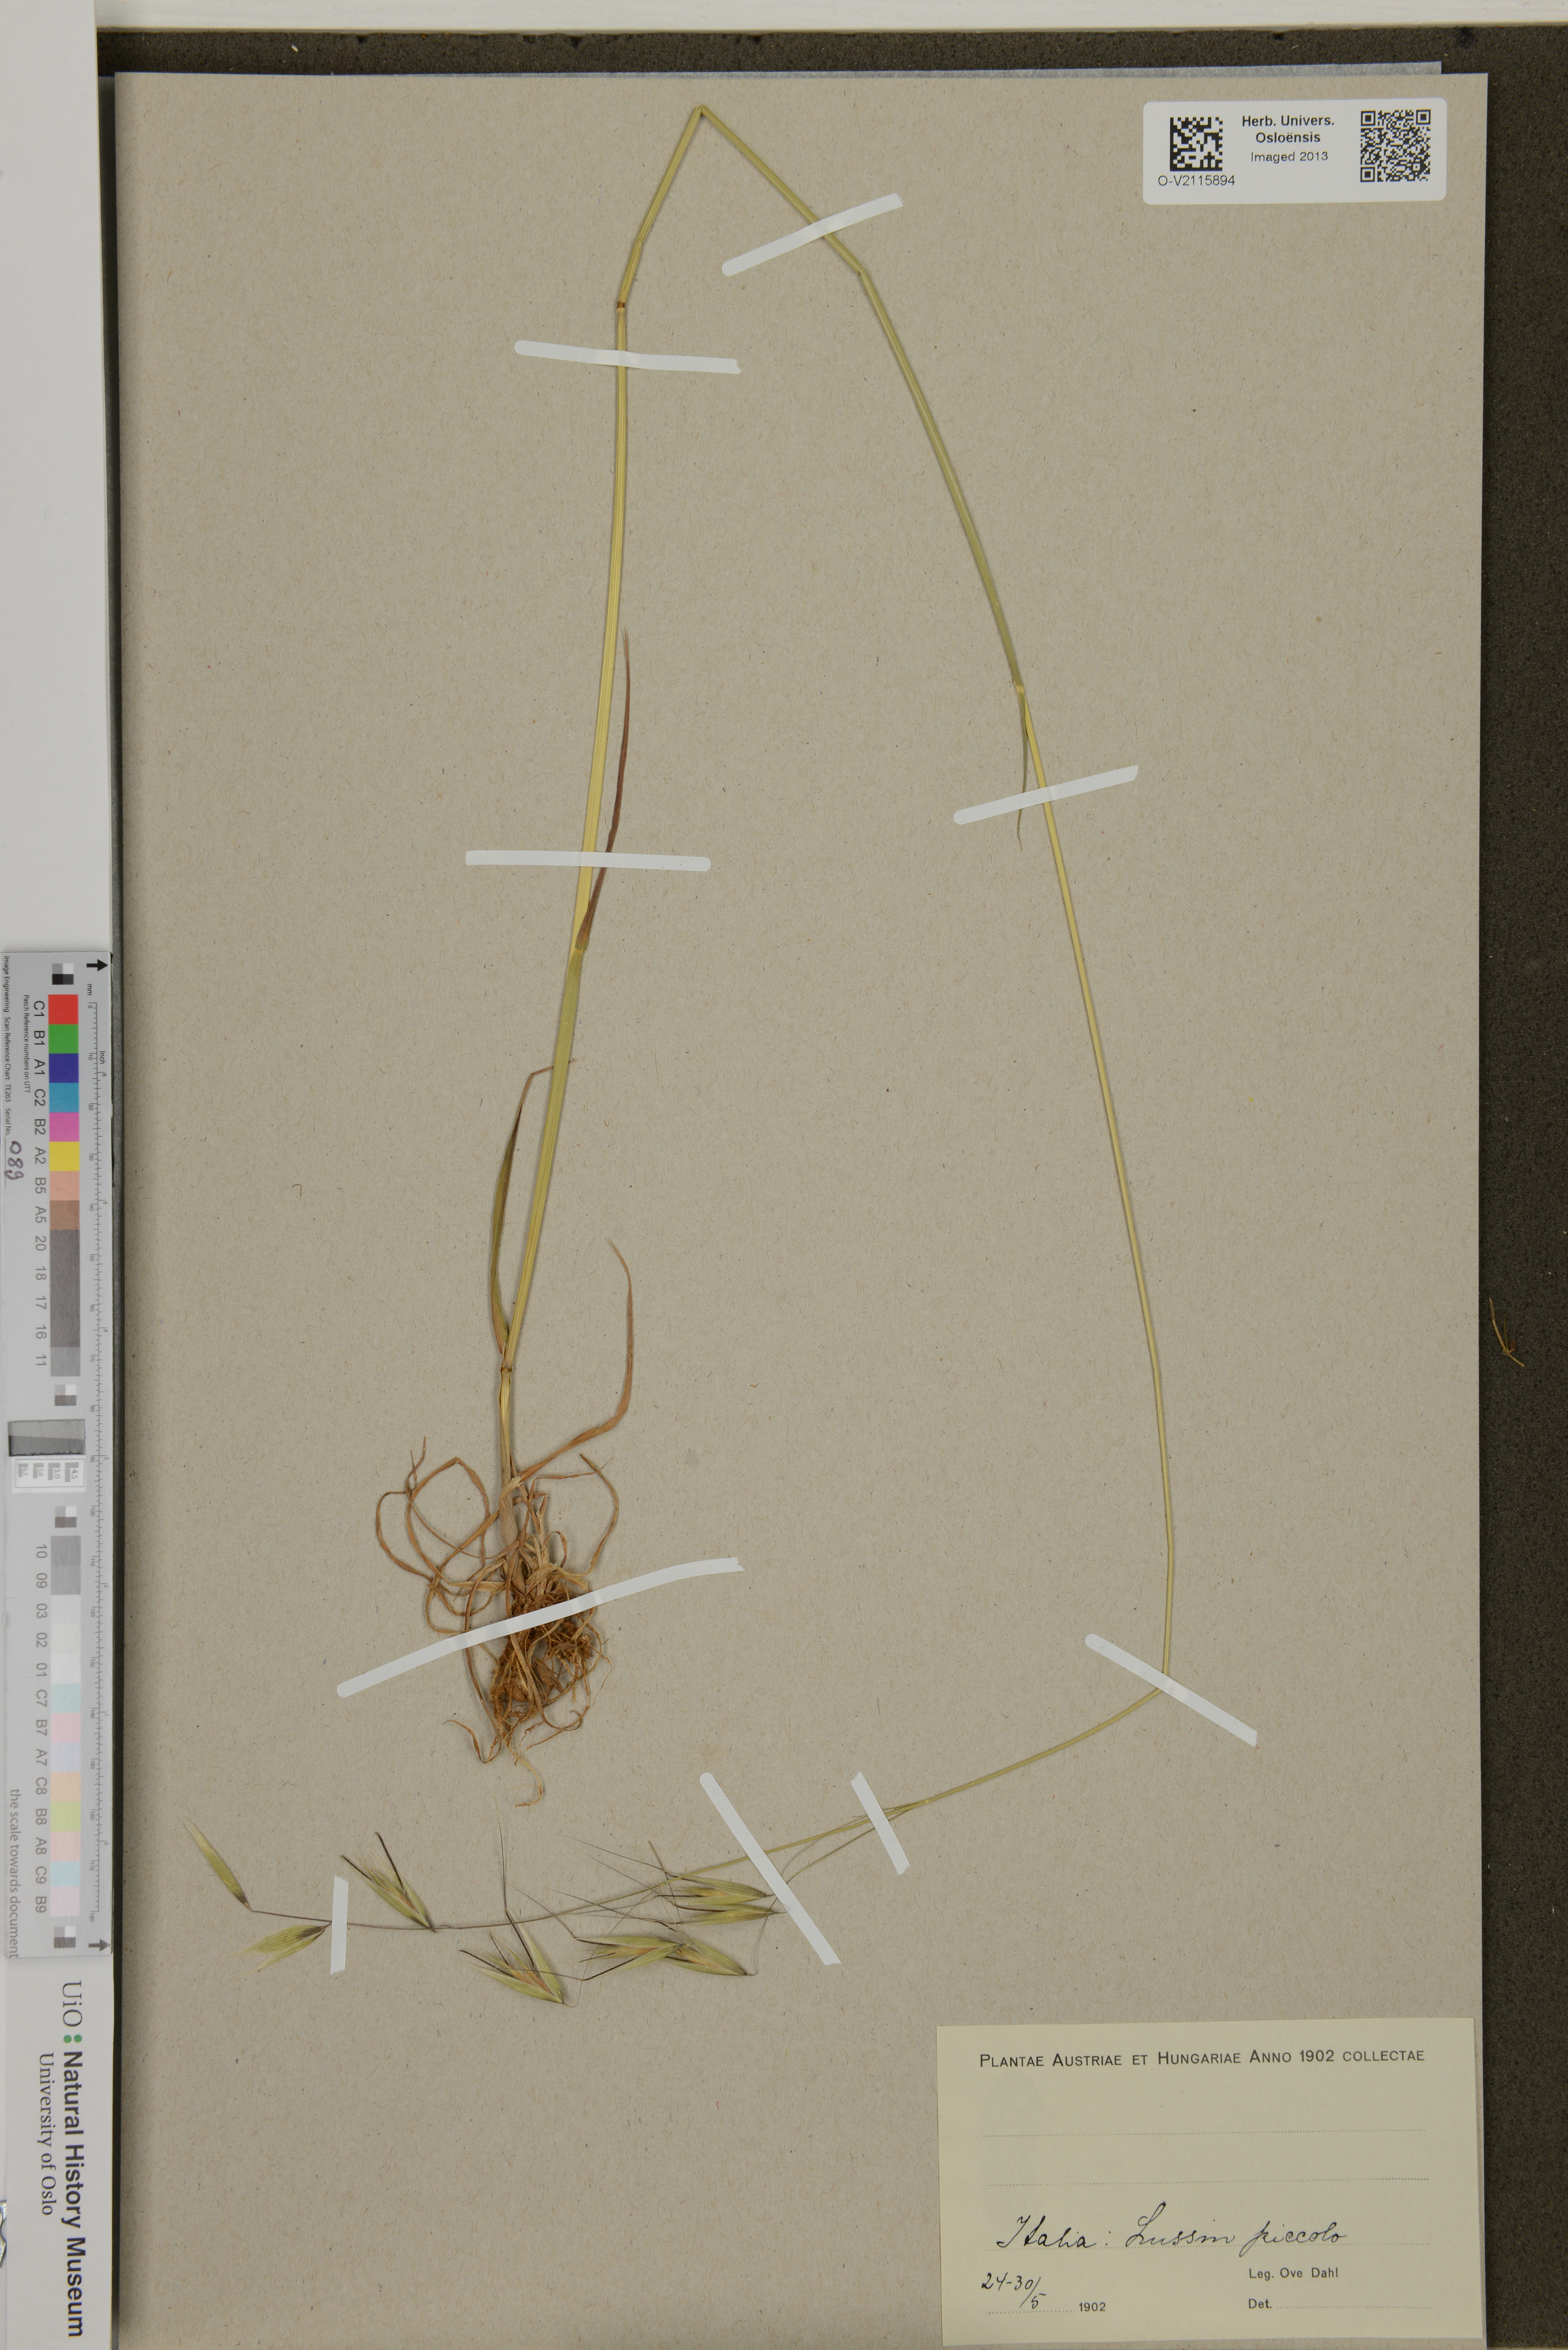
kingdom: Plantae
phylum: Tracheophyta
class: Liliopsida
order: Poales
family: Poaceae
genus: Avena
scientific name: Avena
